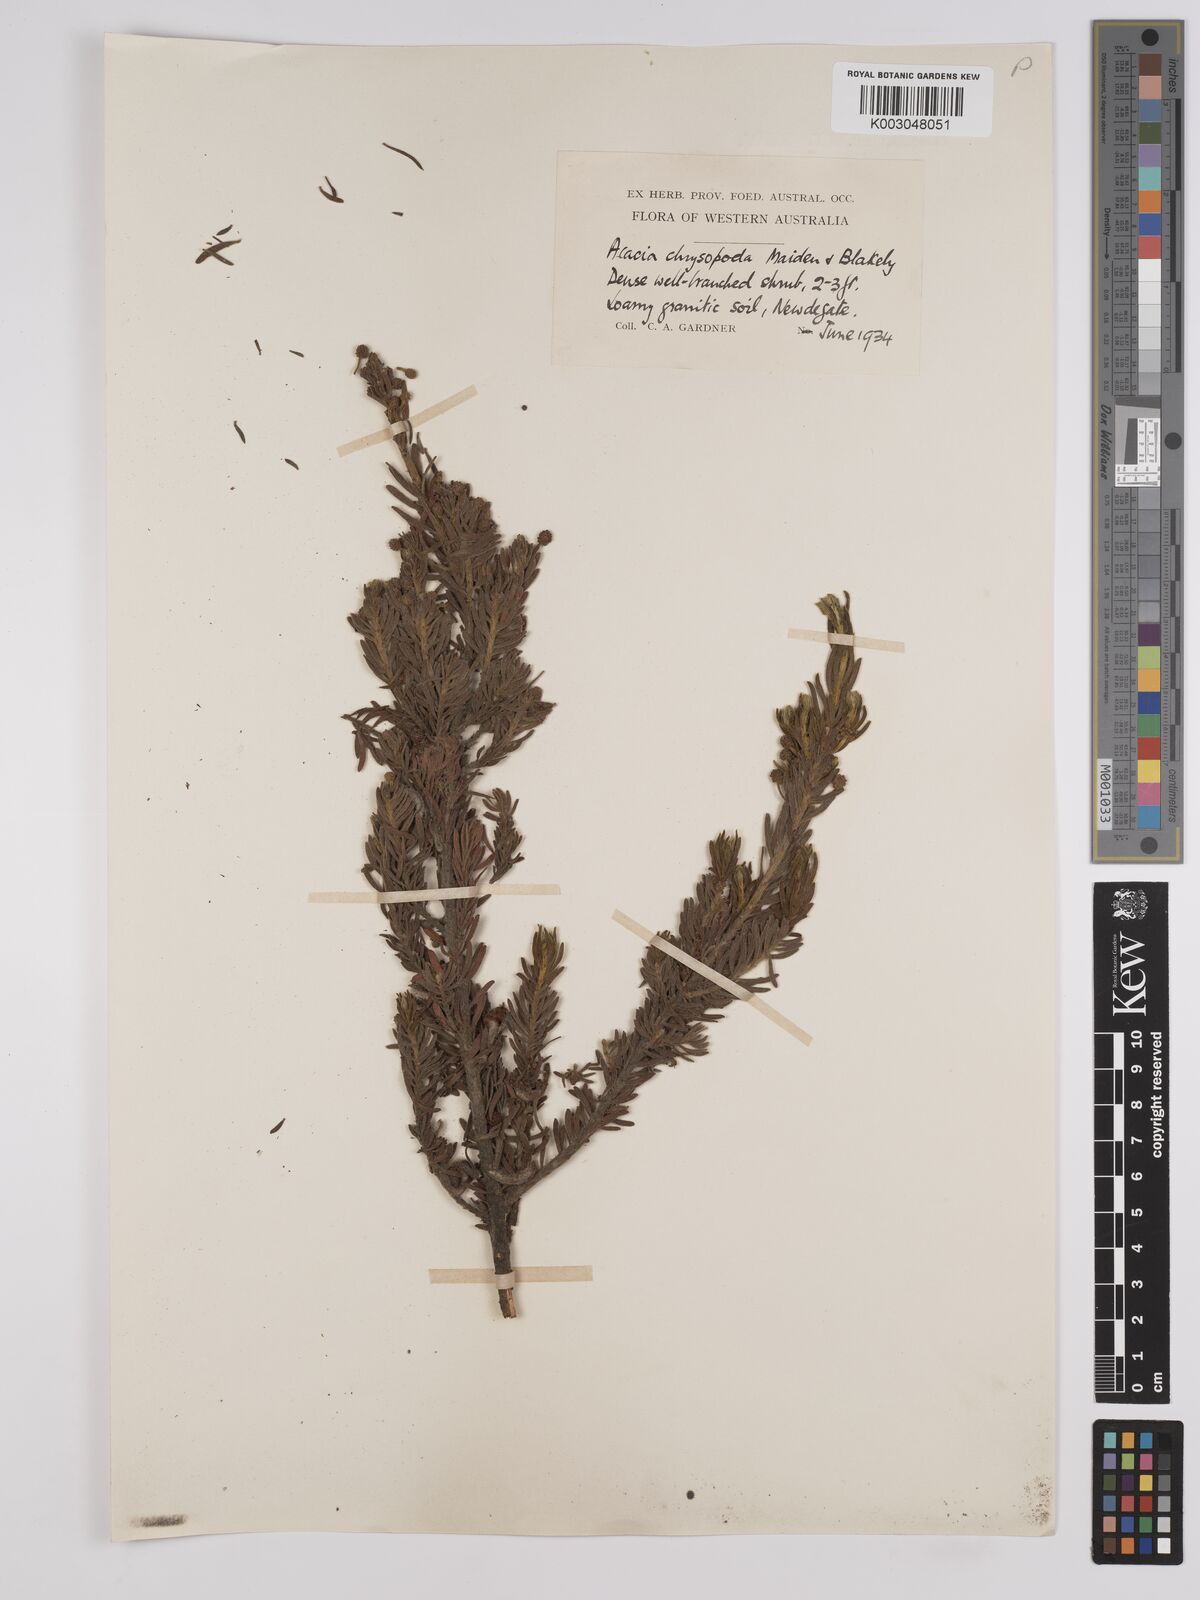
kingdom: Plantae
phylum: Tracheophyta
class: Magnoliopsida
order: Fabales
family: Fabaceae
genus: Acacia
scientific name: Acacia chrysopoda
